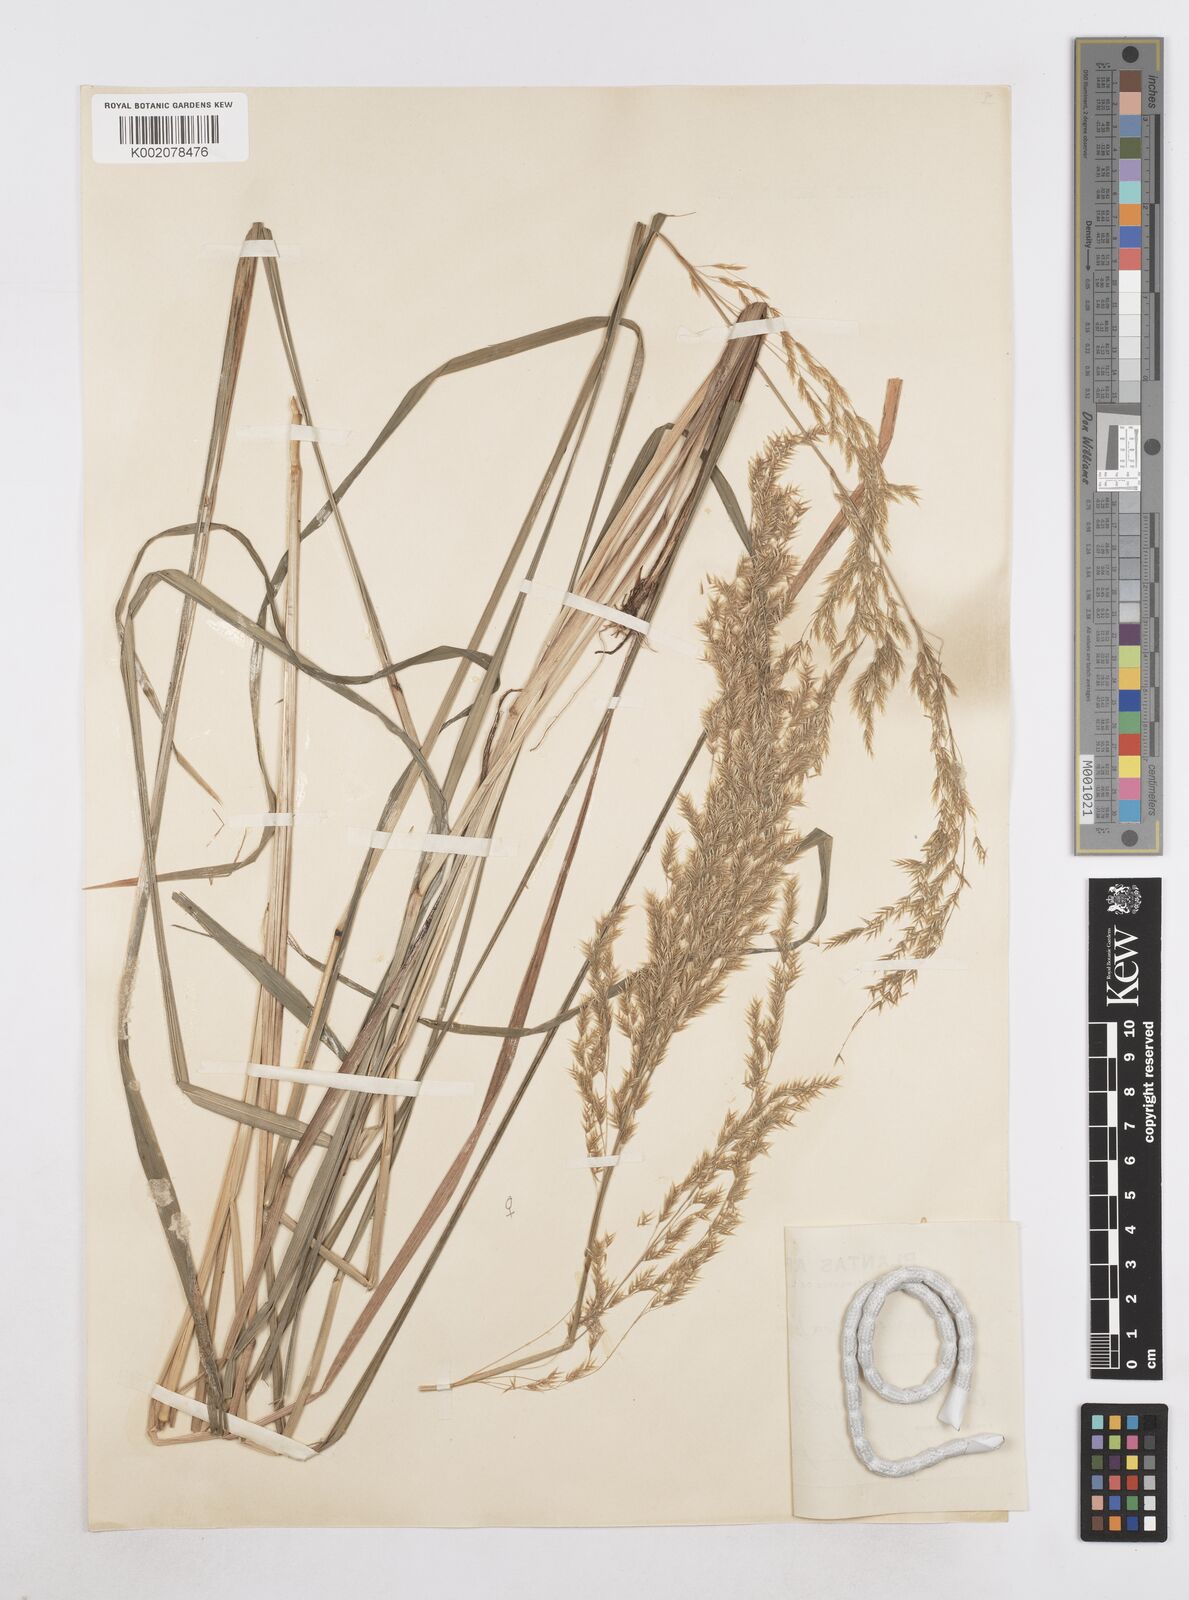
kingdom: Plantae
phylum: Tracheophyta
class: Liliopsida
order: Poales
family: Poaceae
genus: Poa
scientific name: Poa dolichophylla
